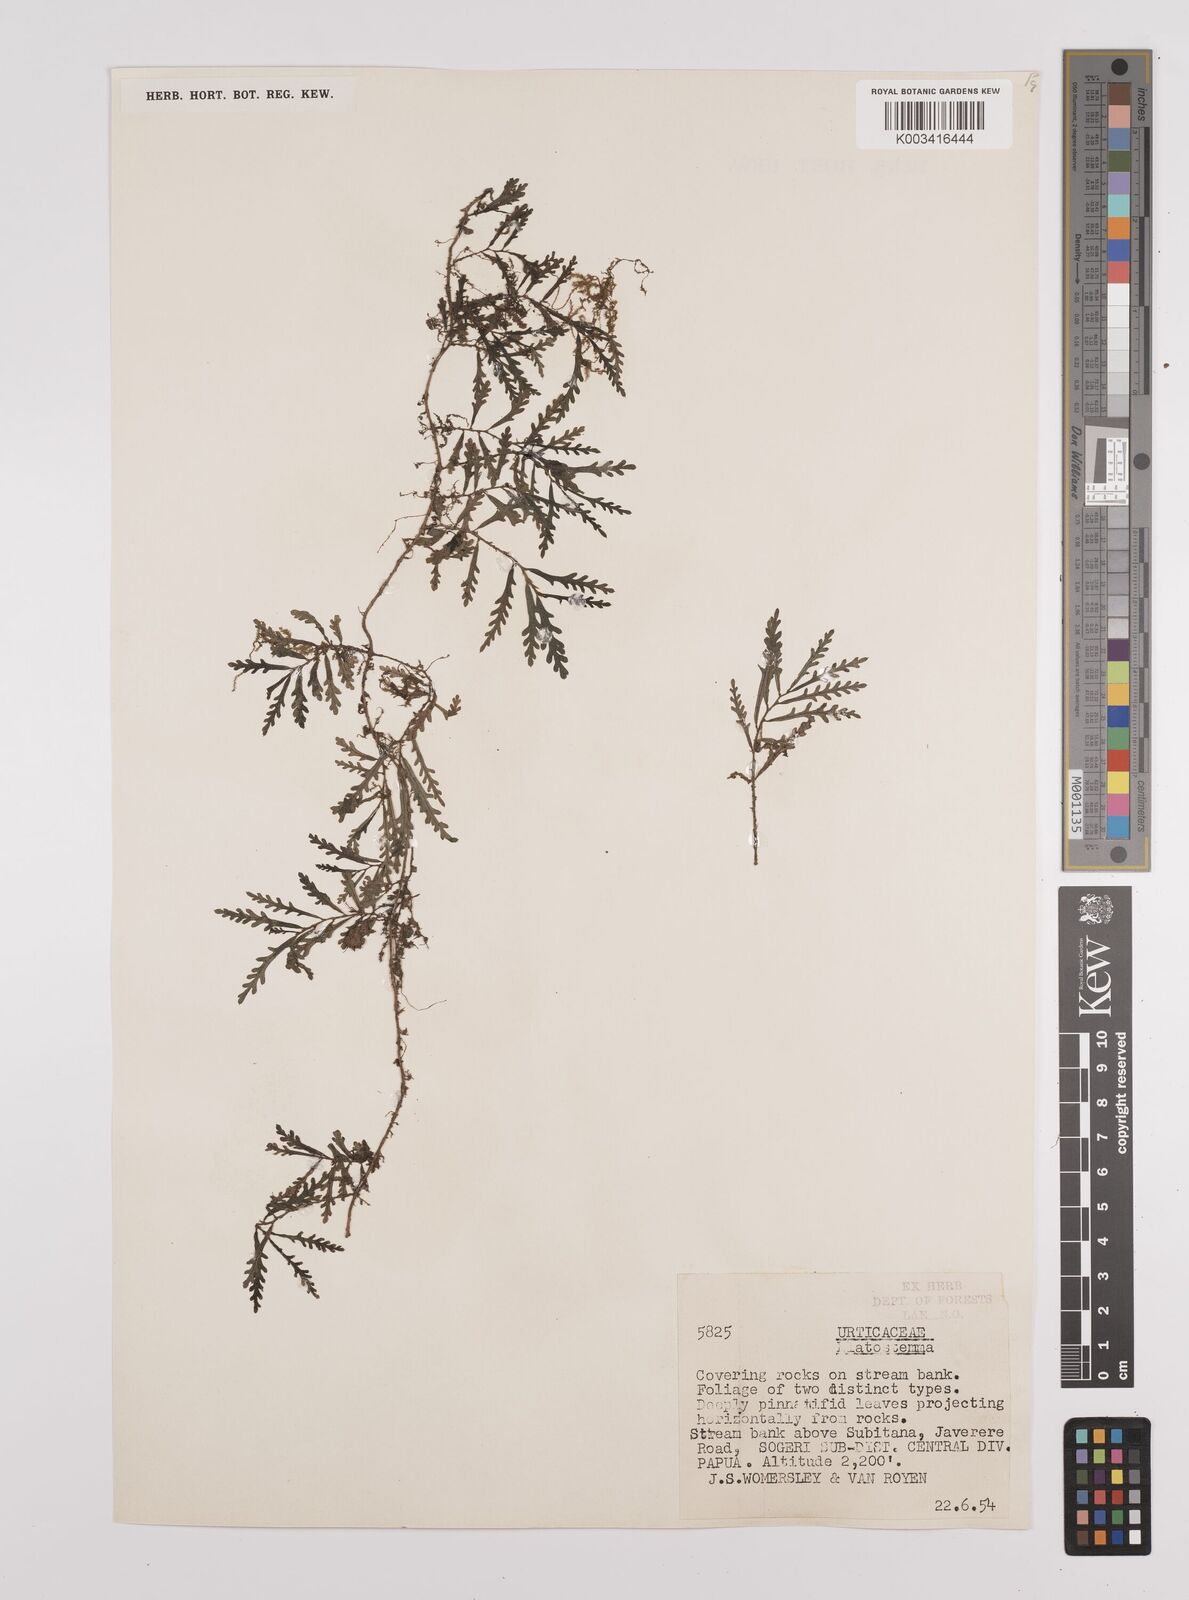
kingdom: Plantae
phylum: Tracheophyta
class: Magnoliopsida
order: Rosales
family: Urticaceae
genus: Elatostema
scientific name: Elatostema
